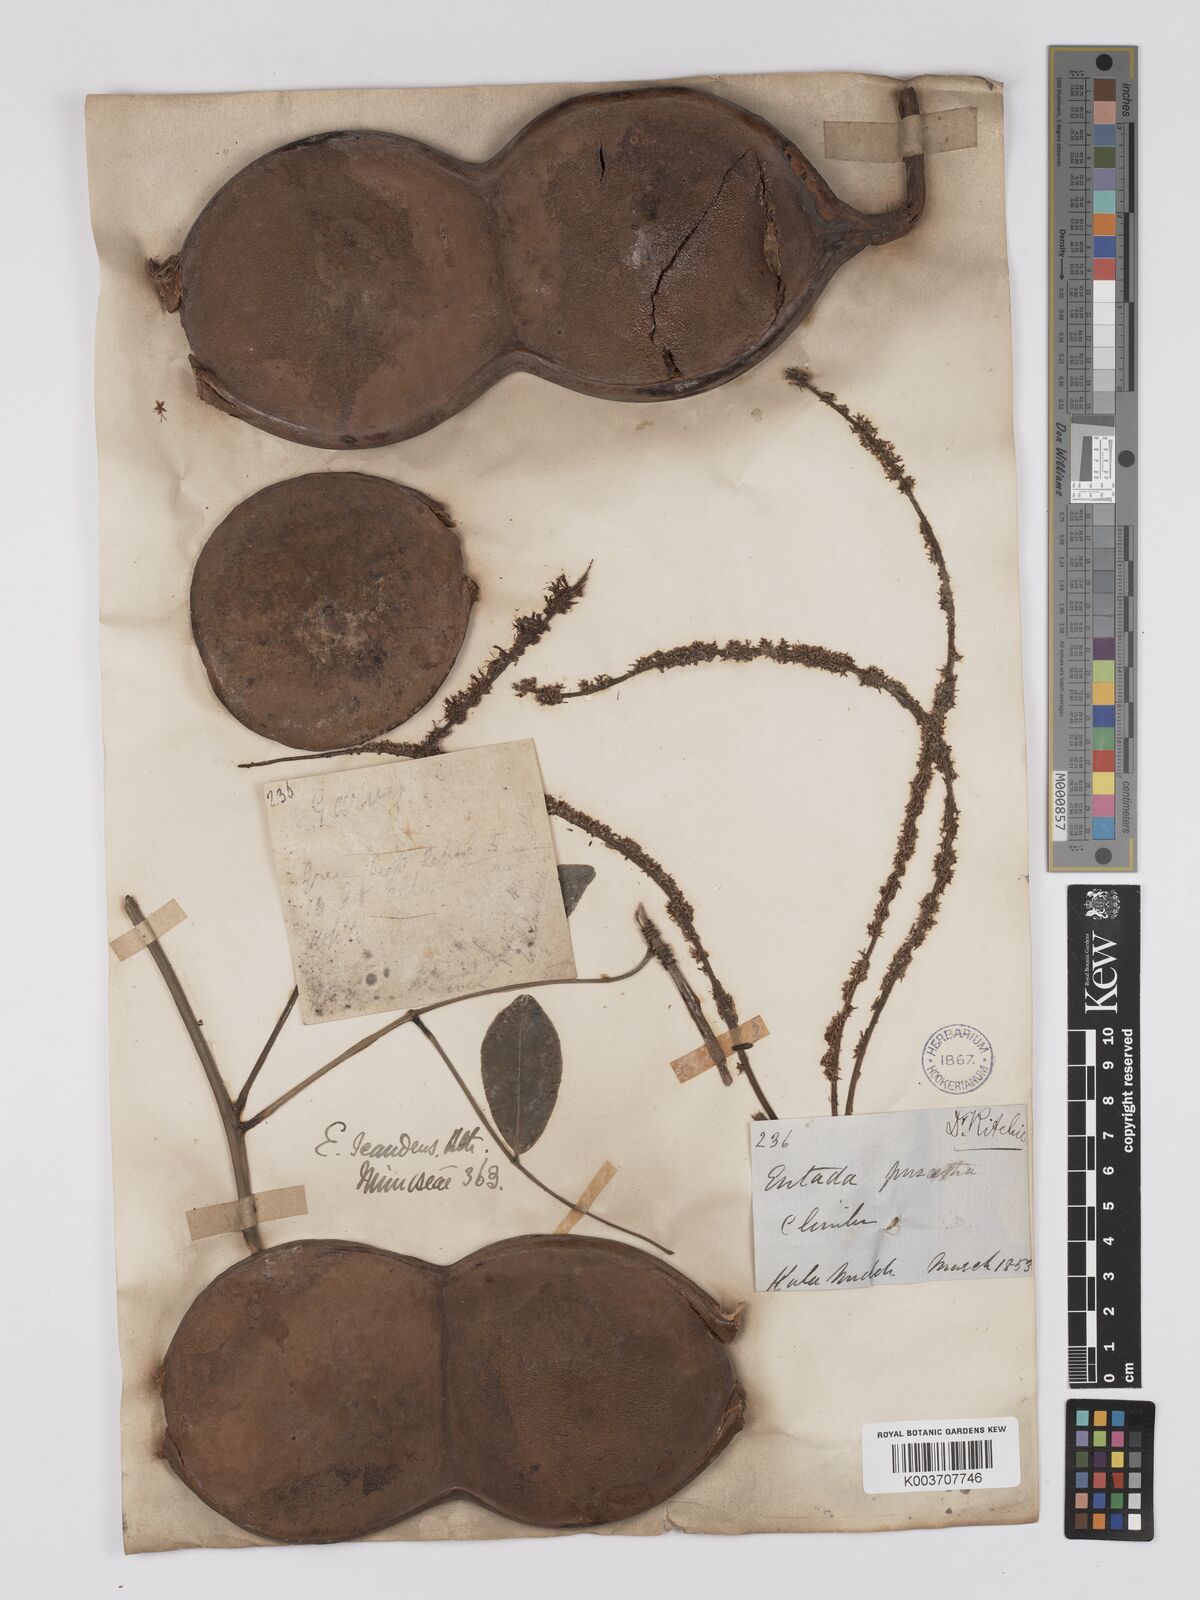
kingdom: Plantae
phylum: Tracheophyta
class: Magnoliopsida
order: Fabales
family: Fabaceae
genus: Entada
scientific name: Entada phaseoloides
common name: Matchbox-bean
